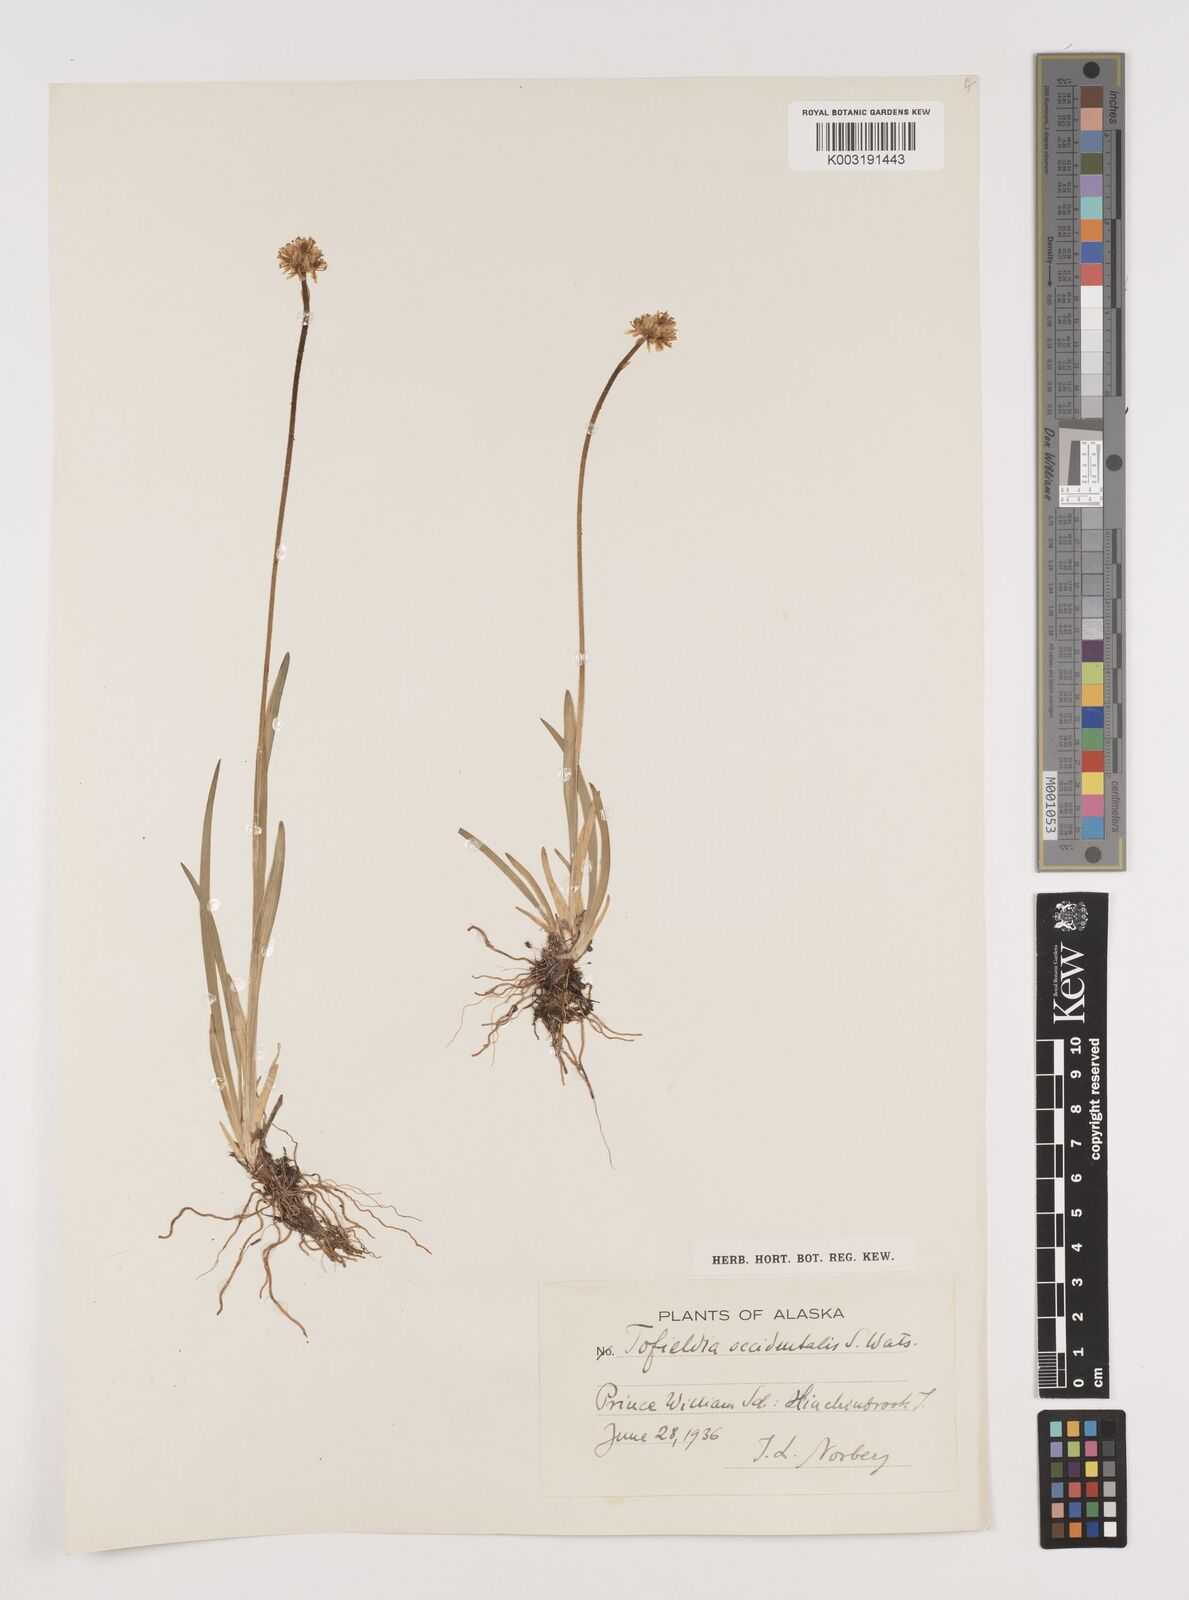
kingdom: Plantae
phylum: Tracheophyta
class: Liliopsida
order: Alismatales
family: Tofieldiaceae
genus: Triantha
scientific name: Triantha occidentalis
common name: Western false asphodel
